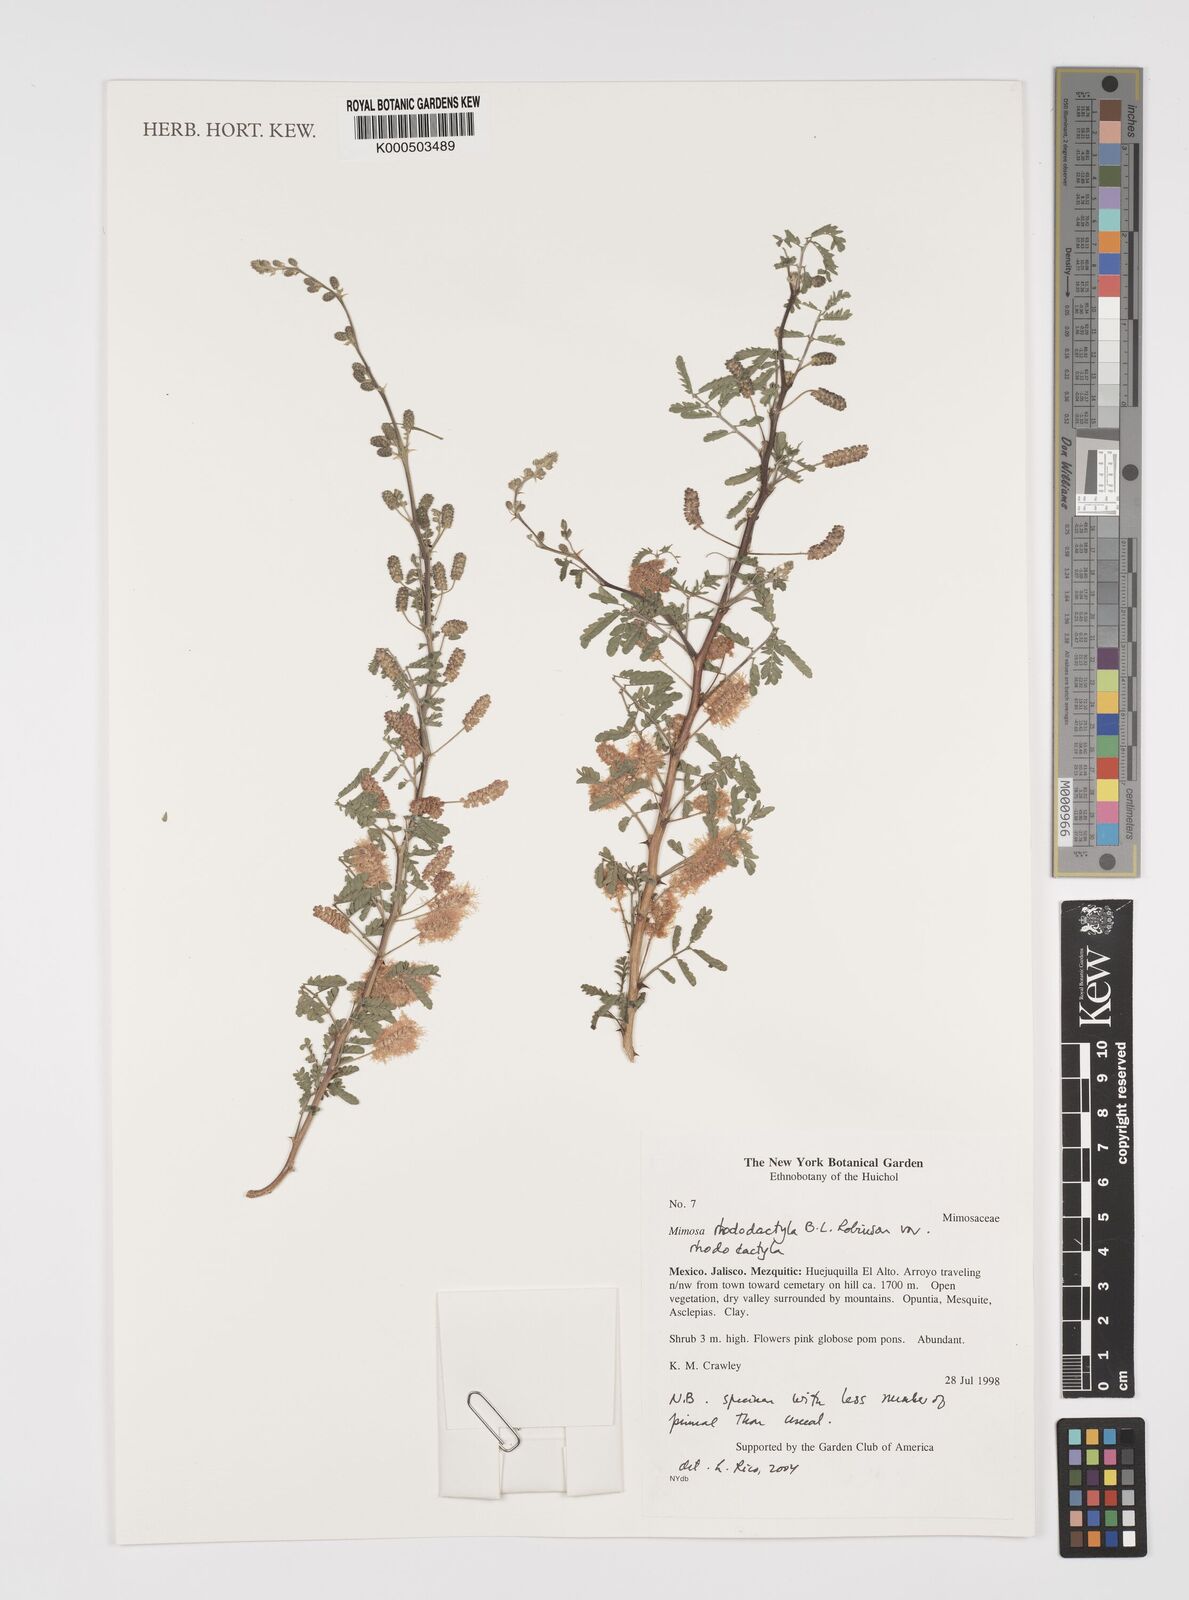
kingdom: Plantae
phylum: Tracheophyta
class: Magnoliopsida
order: Fabales
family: Fabaceae
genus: Mimosa
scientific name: Mimosa rhododactyla
